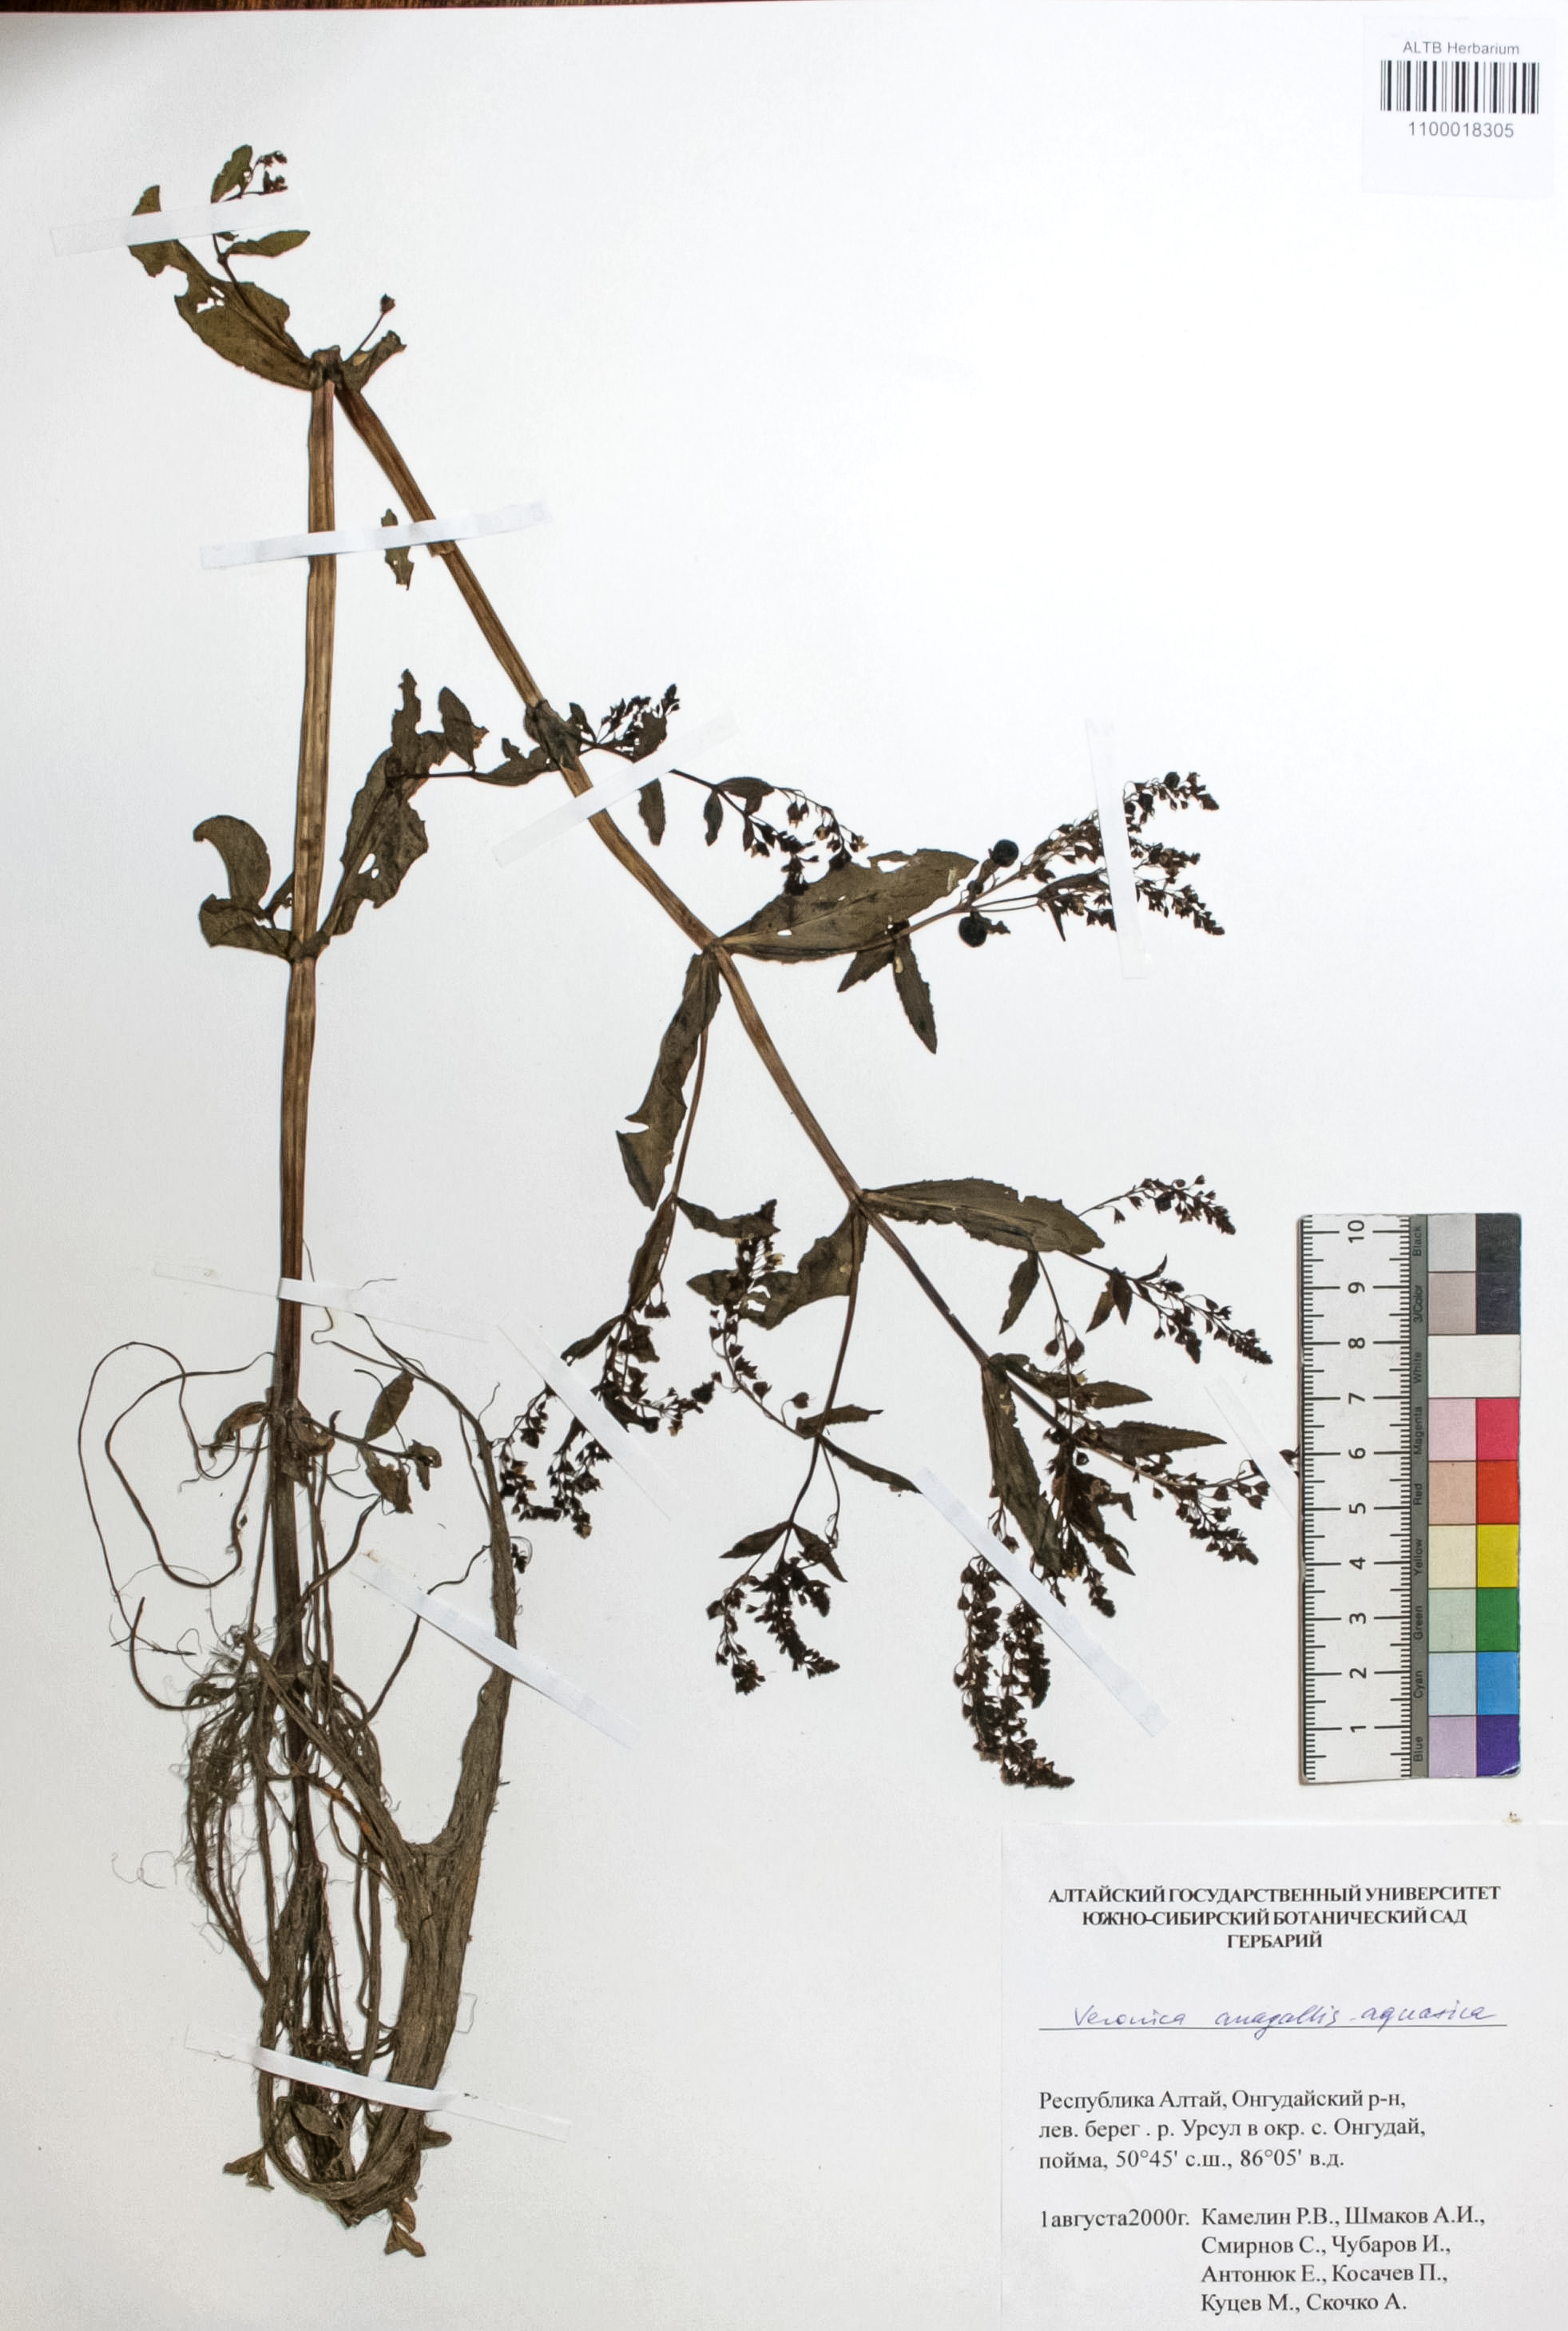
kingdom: Plantae
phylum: Tracheophyta
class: Magnoliopsida
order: Lamiales
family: Plantaginaceae
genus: Veronica
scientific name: Veronica anagallis-aquatica
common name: Water speedwell
